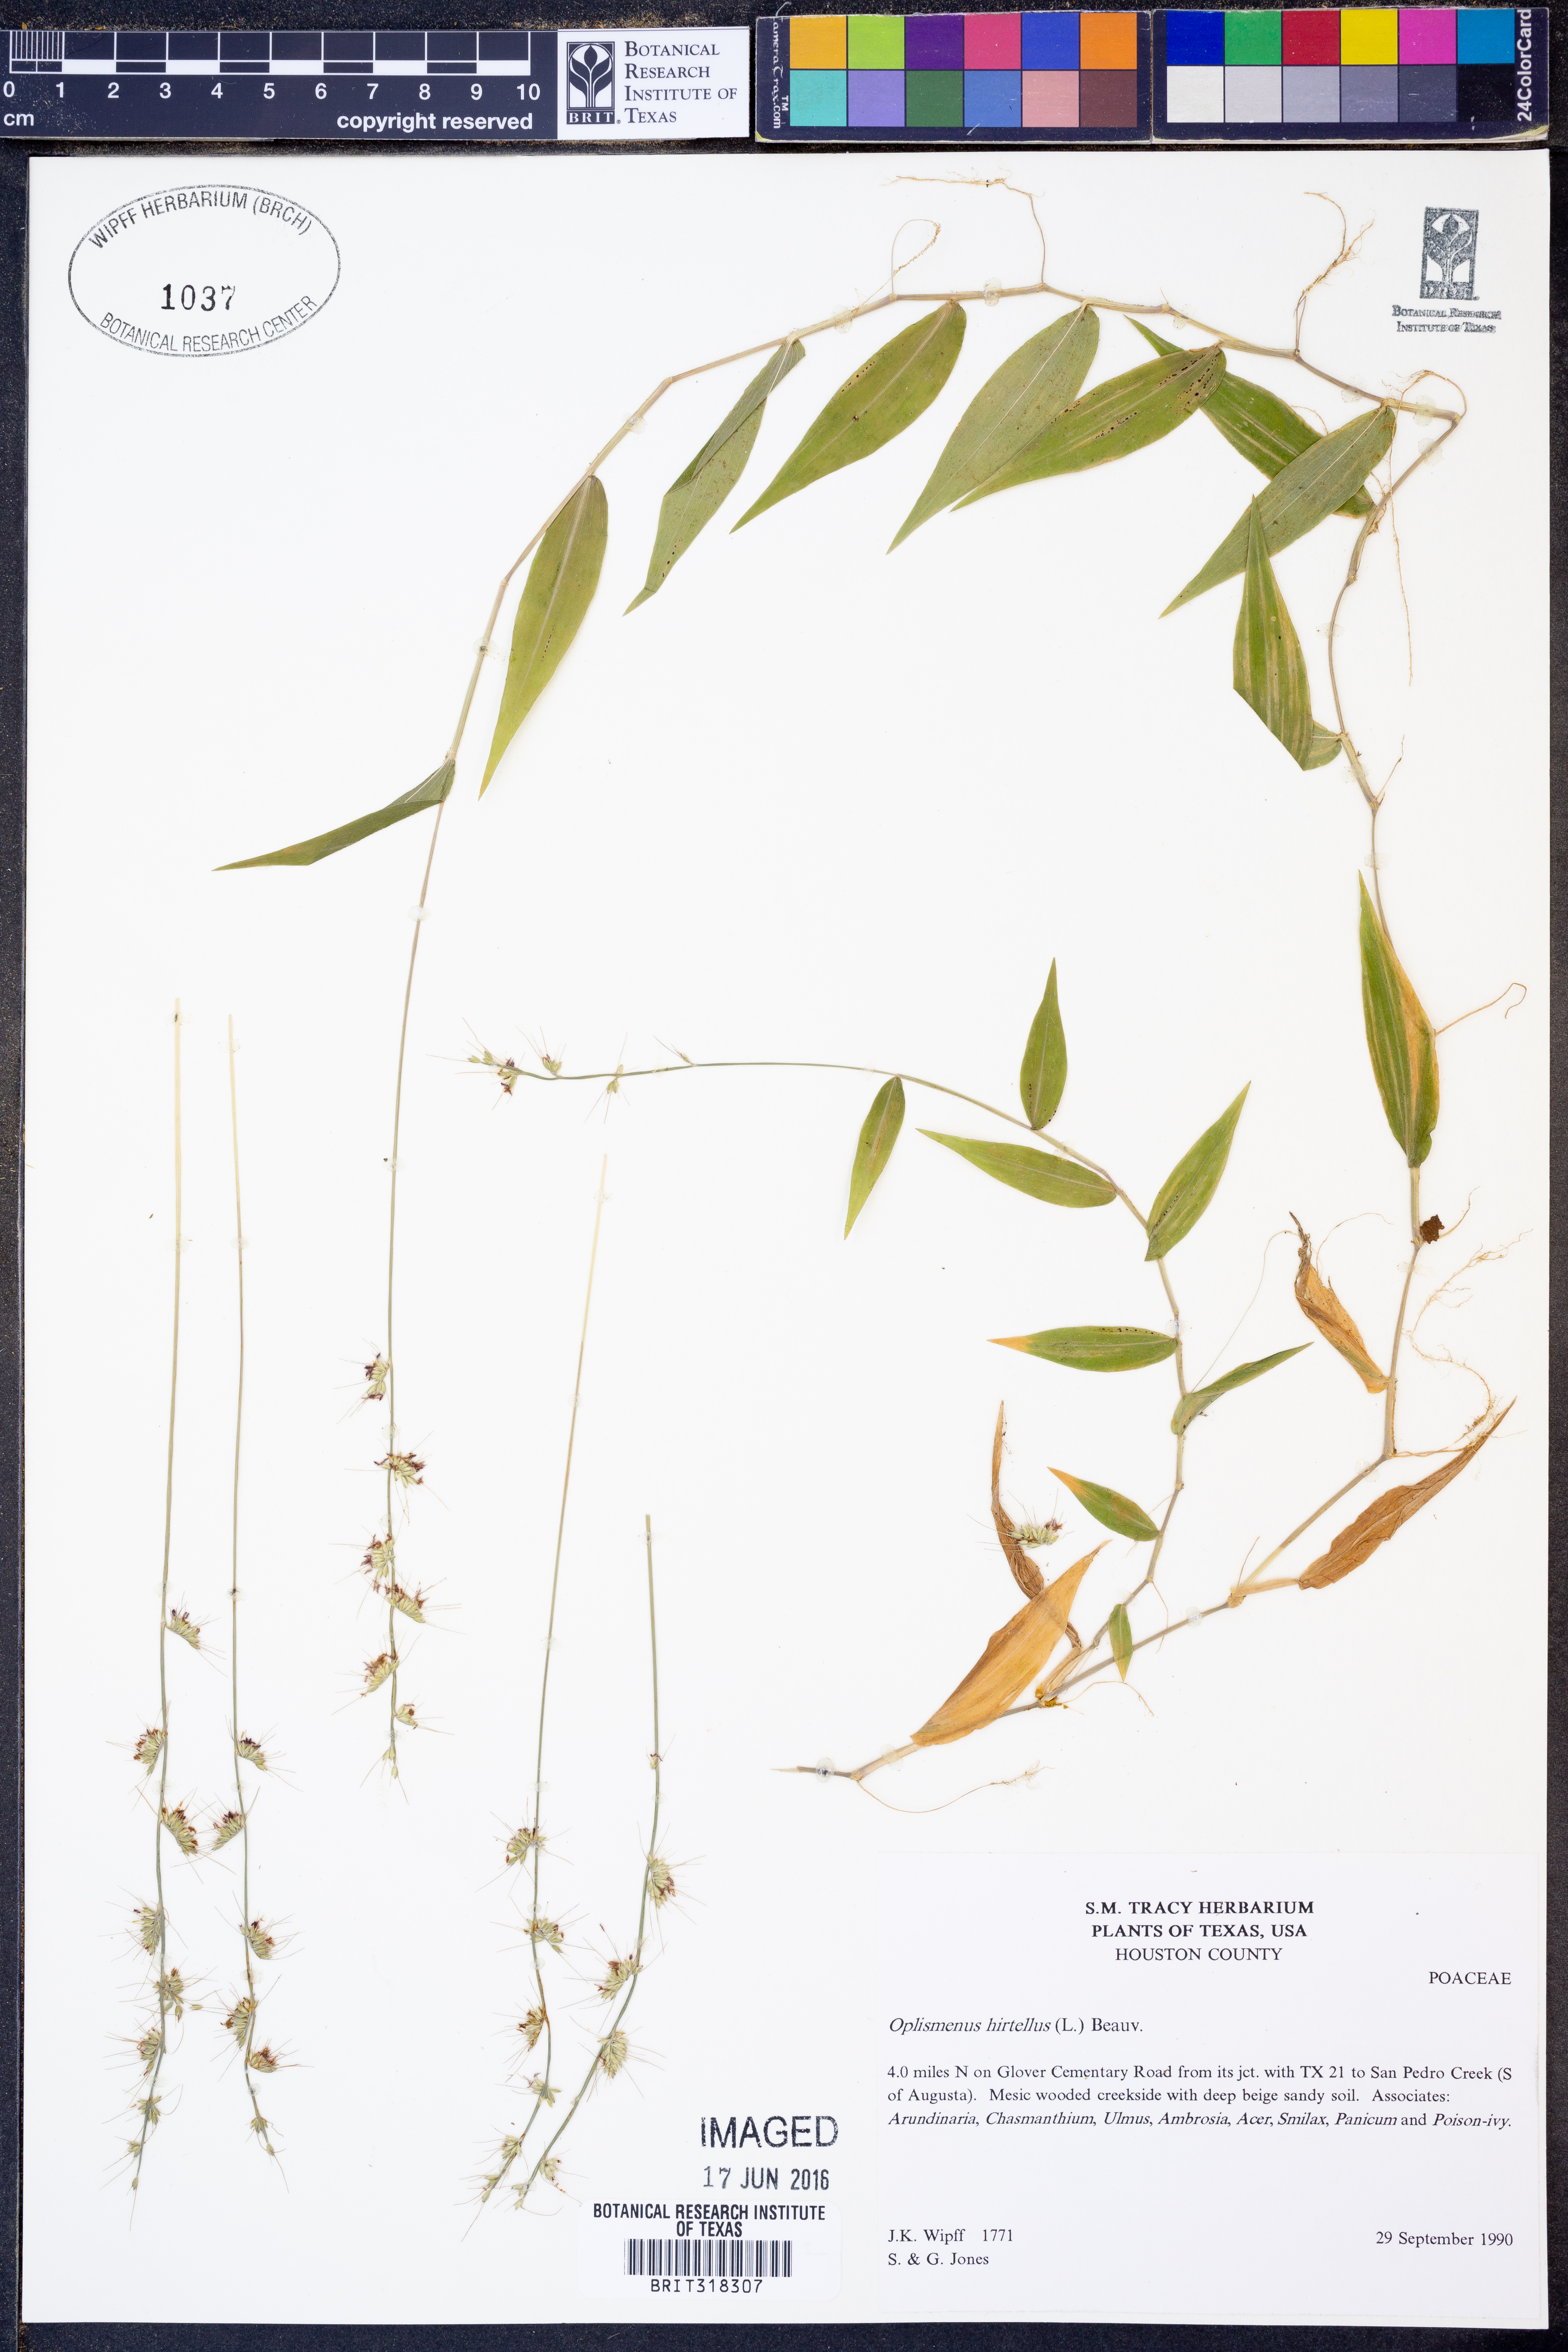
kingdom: Plantae
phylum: Tracheophyta
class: Liliopsida
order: Poales
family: Poaceae
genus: Oplismenus
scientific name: Oplismenus hirtellus
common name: Basketgrass
